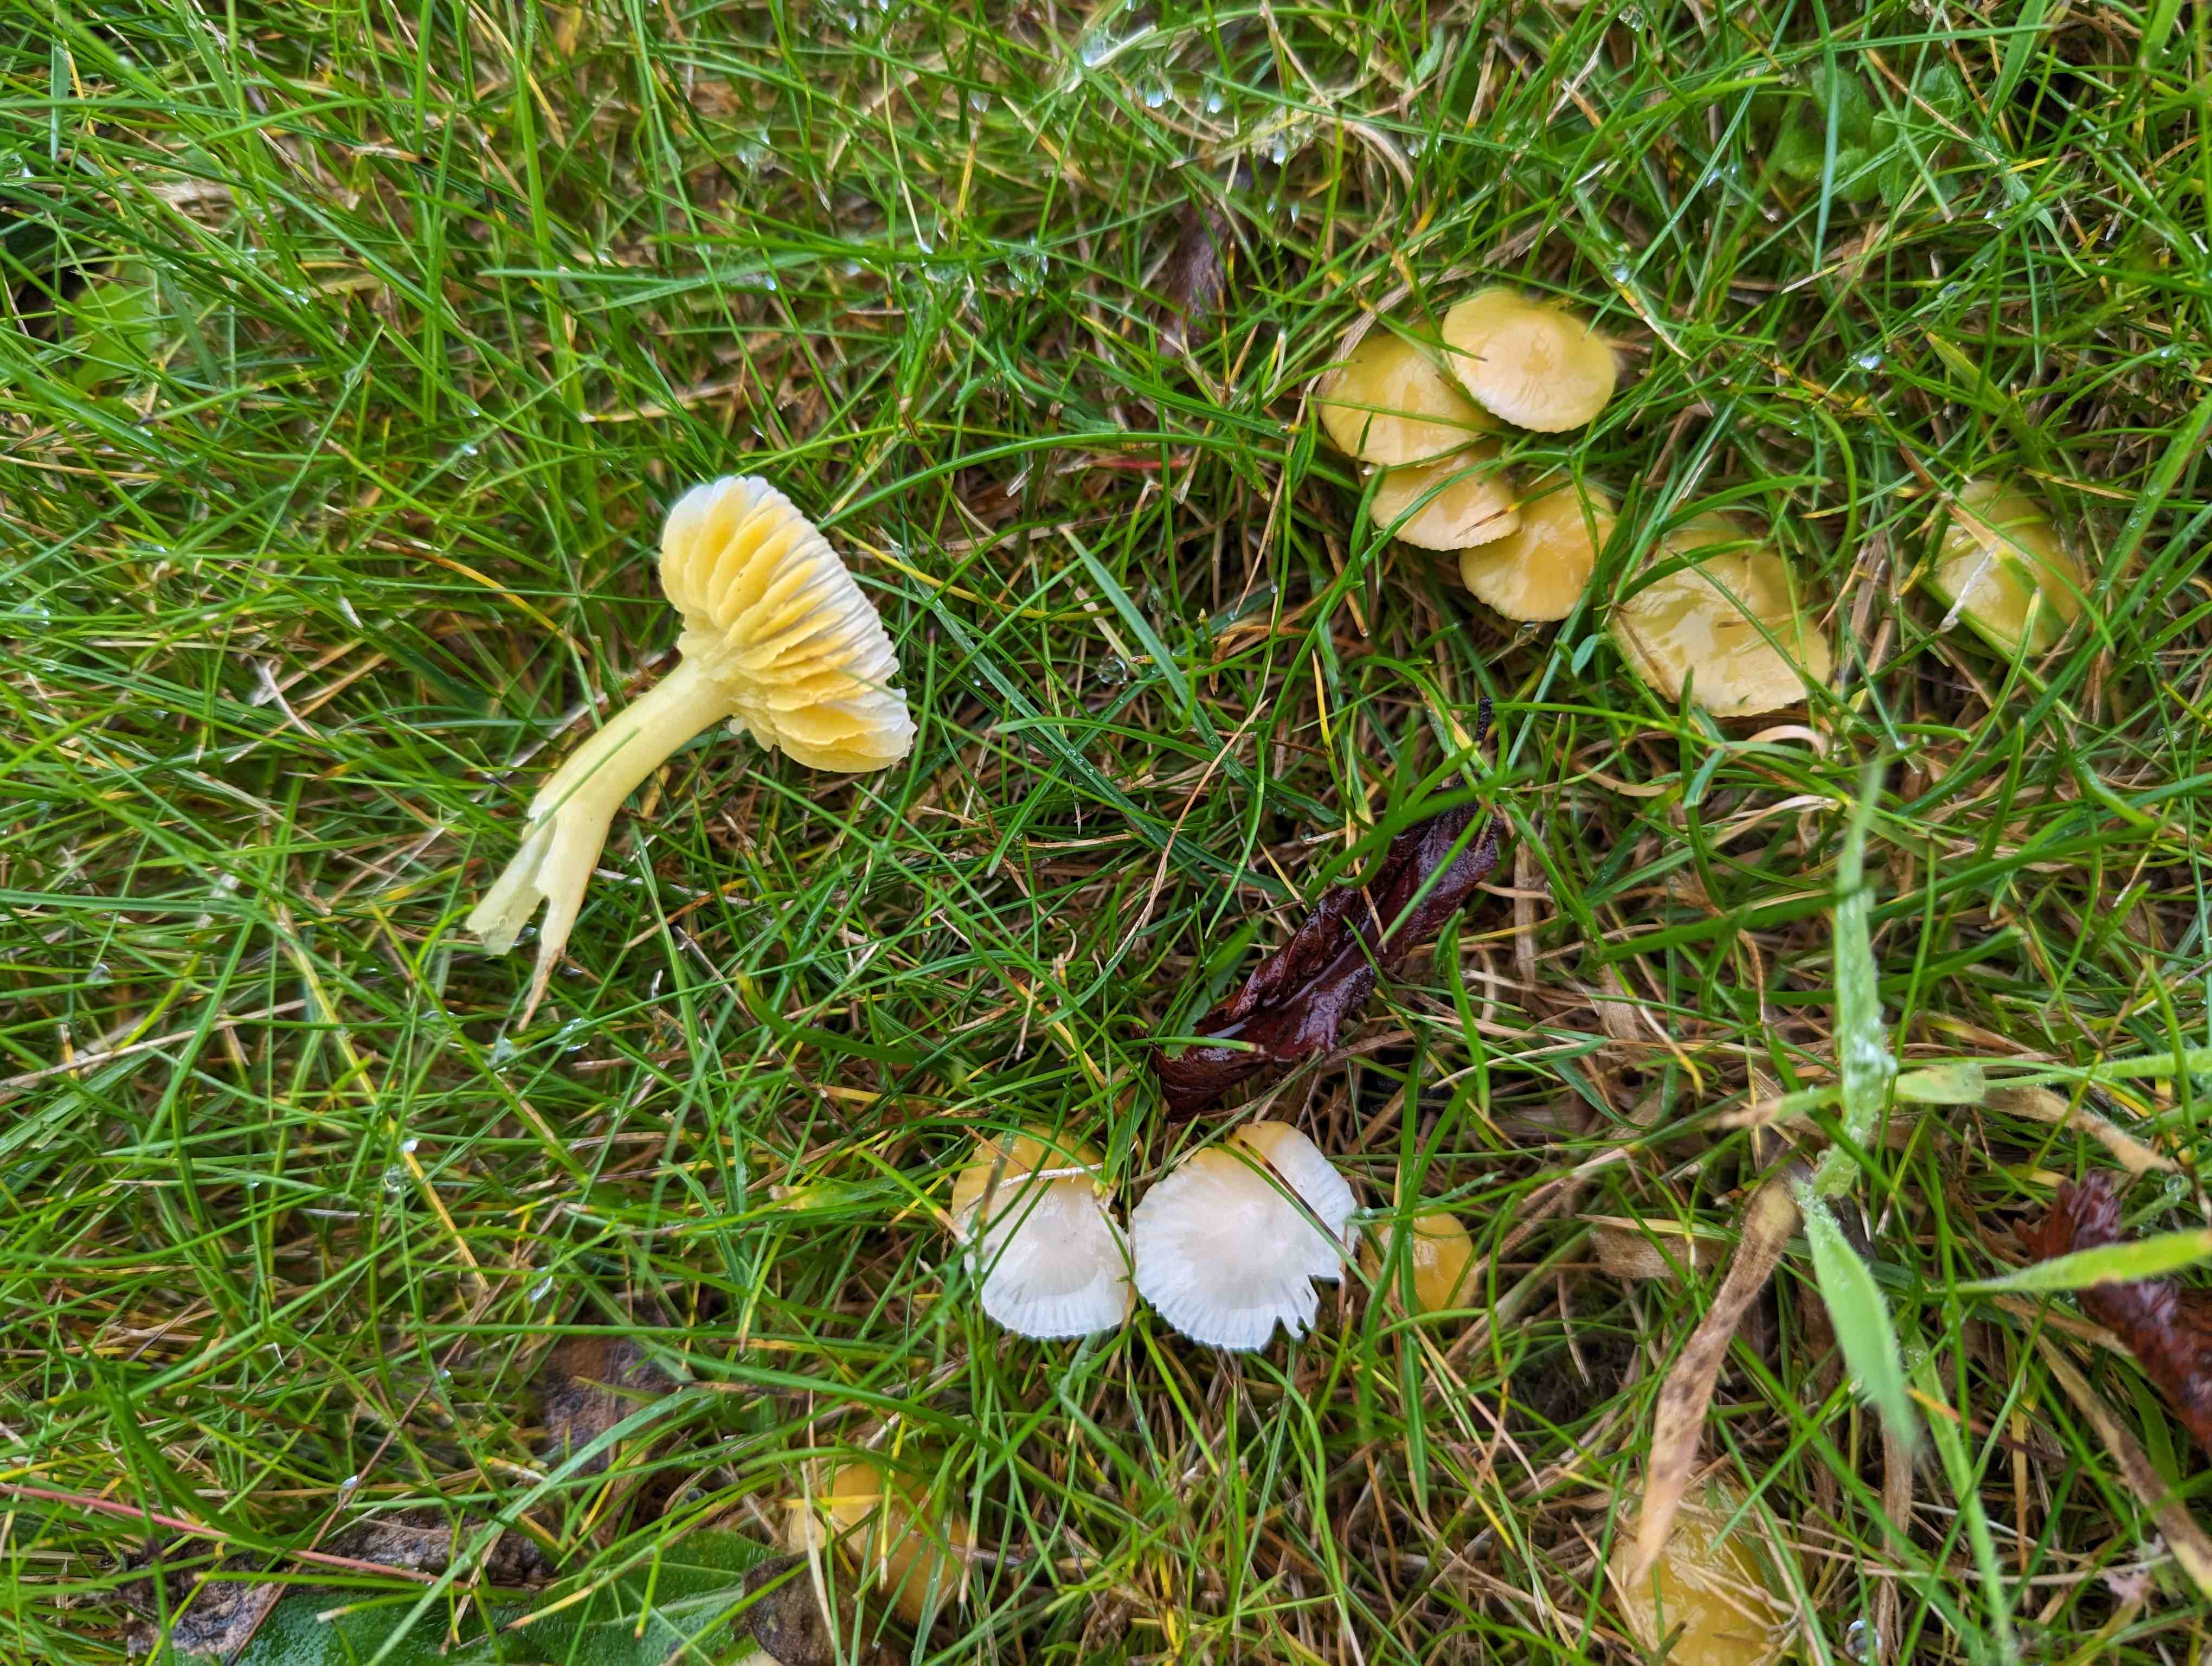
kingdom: Fungi
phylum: Basidiomycota
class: Agaricomycetes
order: Agaricales
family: Hygrophoraceae
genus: Gliophorus
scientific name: Gliophorus psittacinus
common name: papegøje-vokshat
